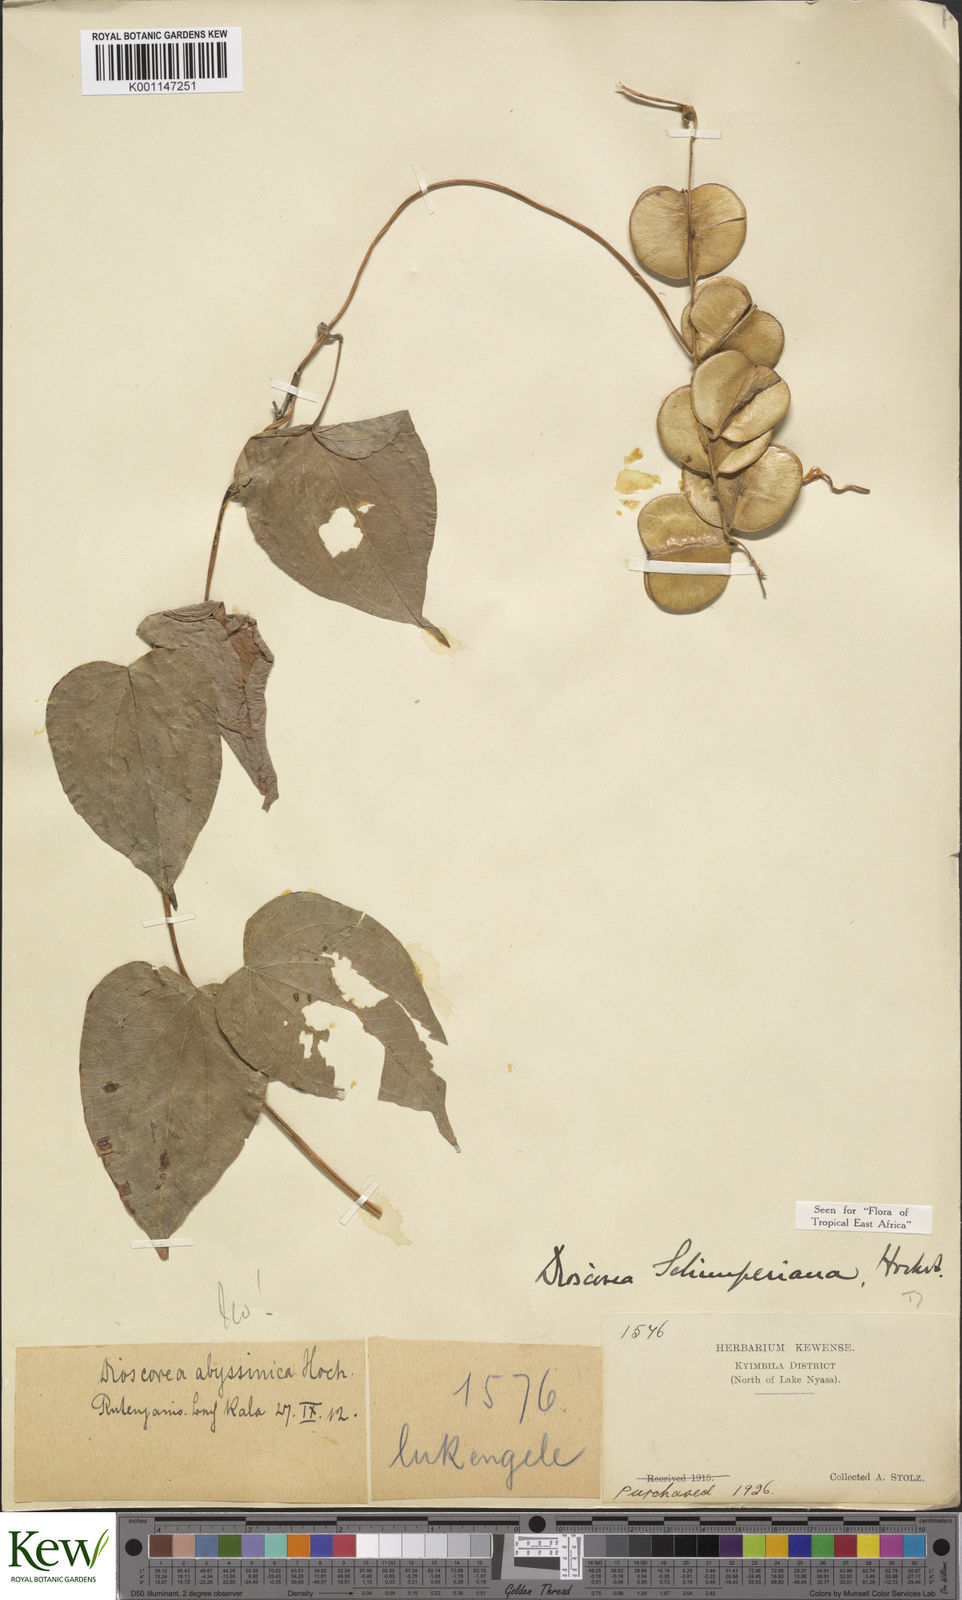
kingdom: Plantae
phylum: Tracheophyta
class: Liliopsida
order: Dioscoreales
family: Dioscoreaceae
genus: Dioscorea
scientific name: Dioscorea schimperiana
